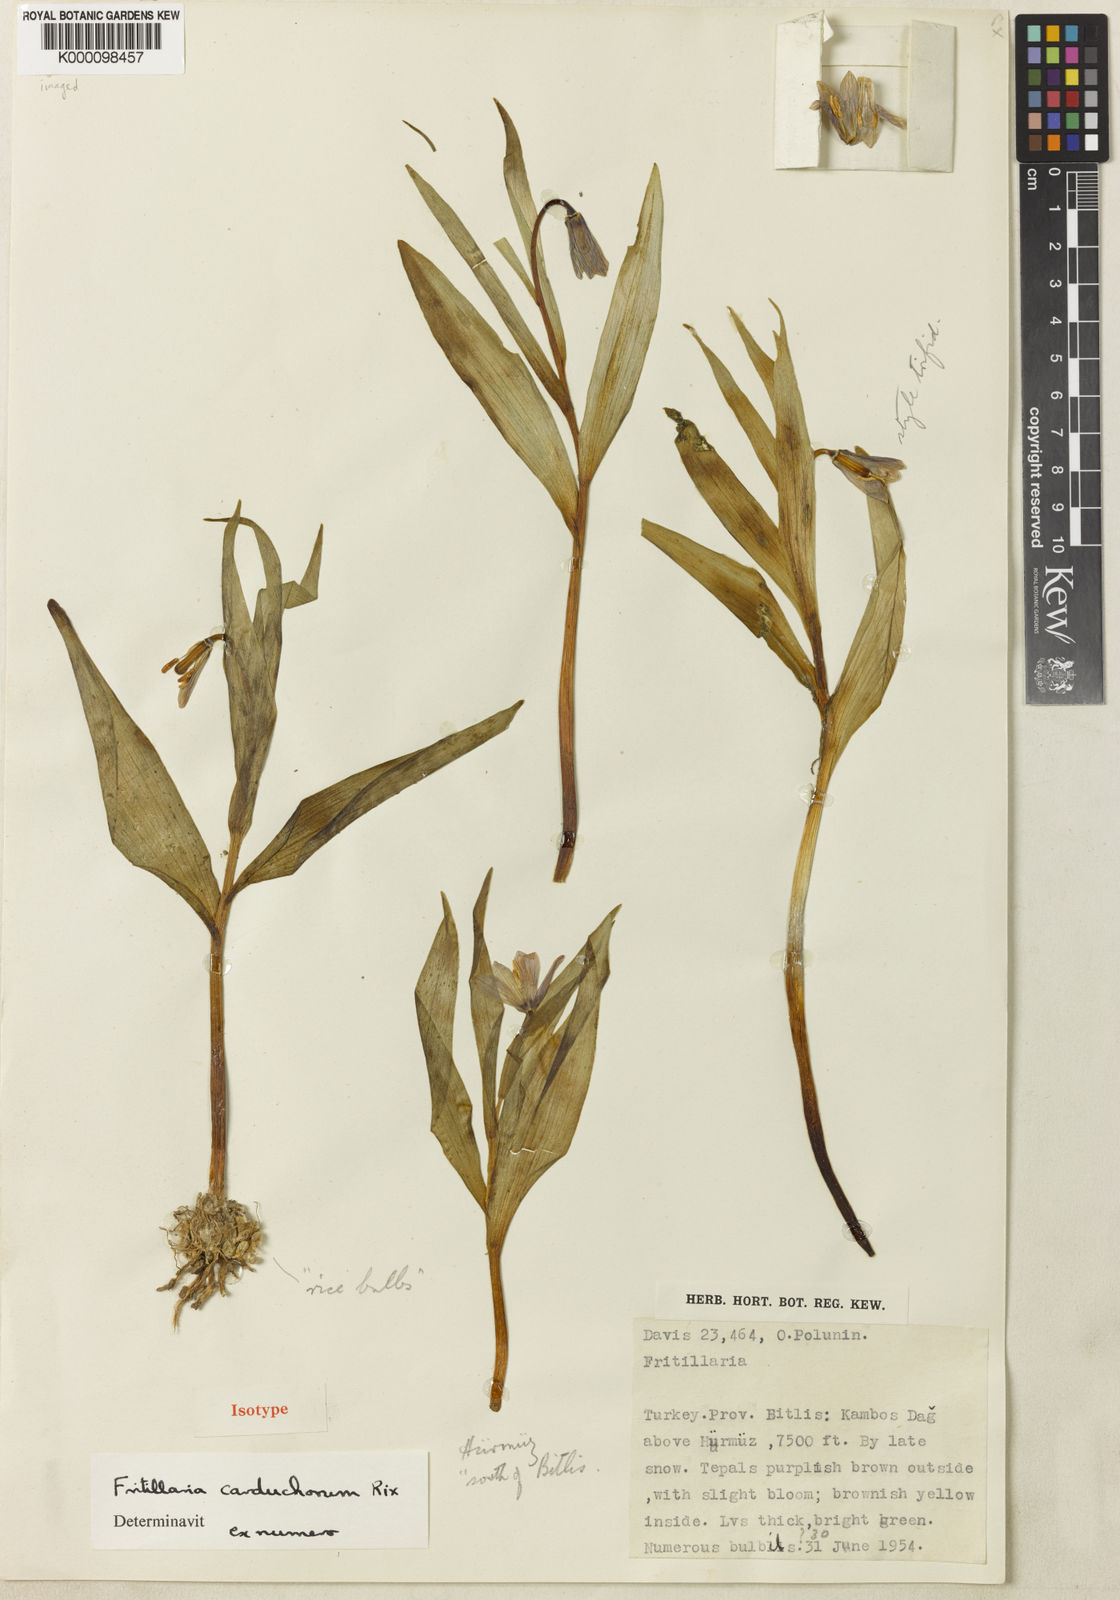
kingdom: Plantae
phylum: Tracheophyta
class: Liliopsida
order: Liliales
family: Liliaceae
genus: Fritillaria
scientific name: Fritillaria minuta
